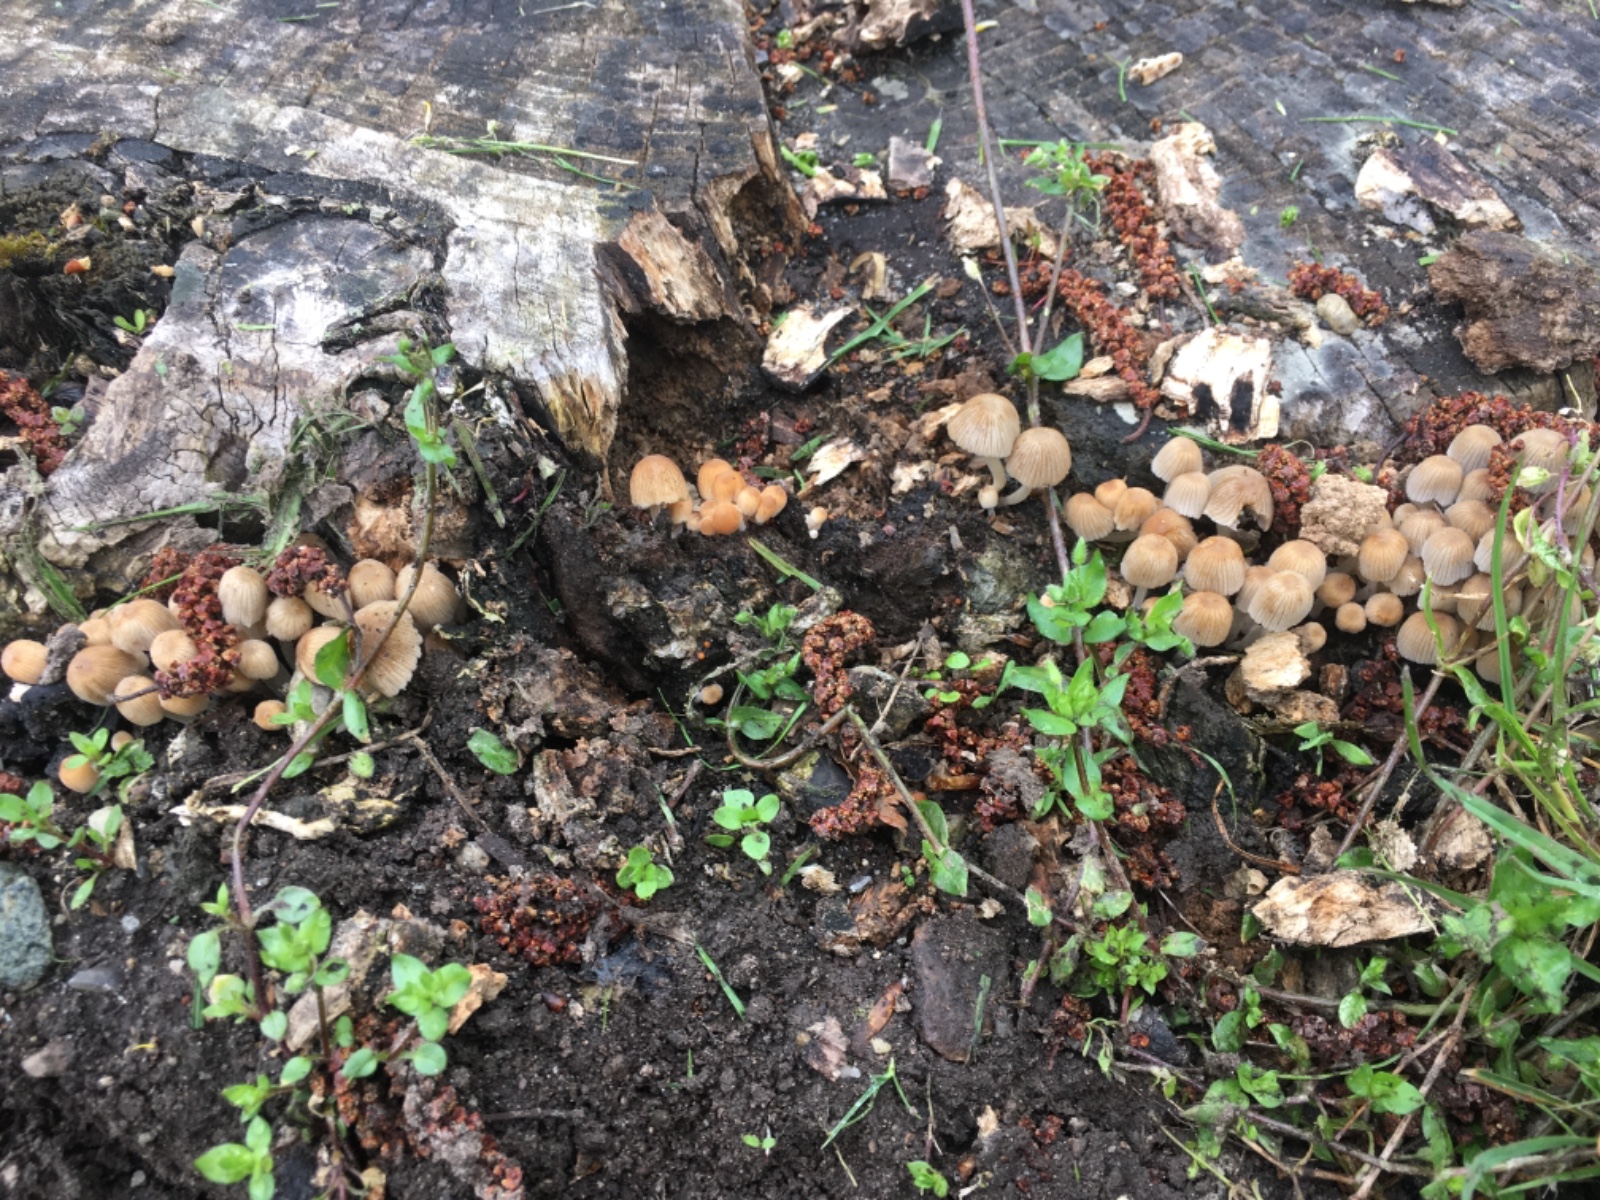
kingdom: Fungi
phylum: Basidiomycota
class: Agaricomycetes
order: Agaricales
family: Psathyrellaceae
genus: Coprinellus
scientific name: Coprinellus disseminatus
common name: bredsået blækhat
